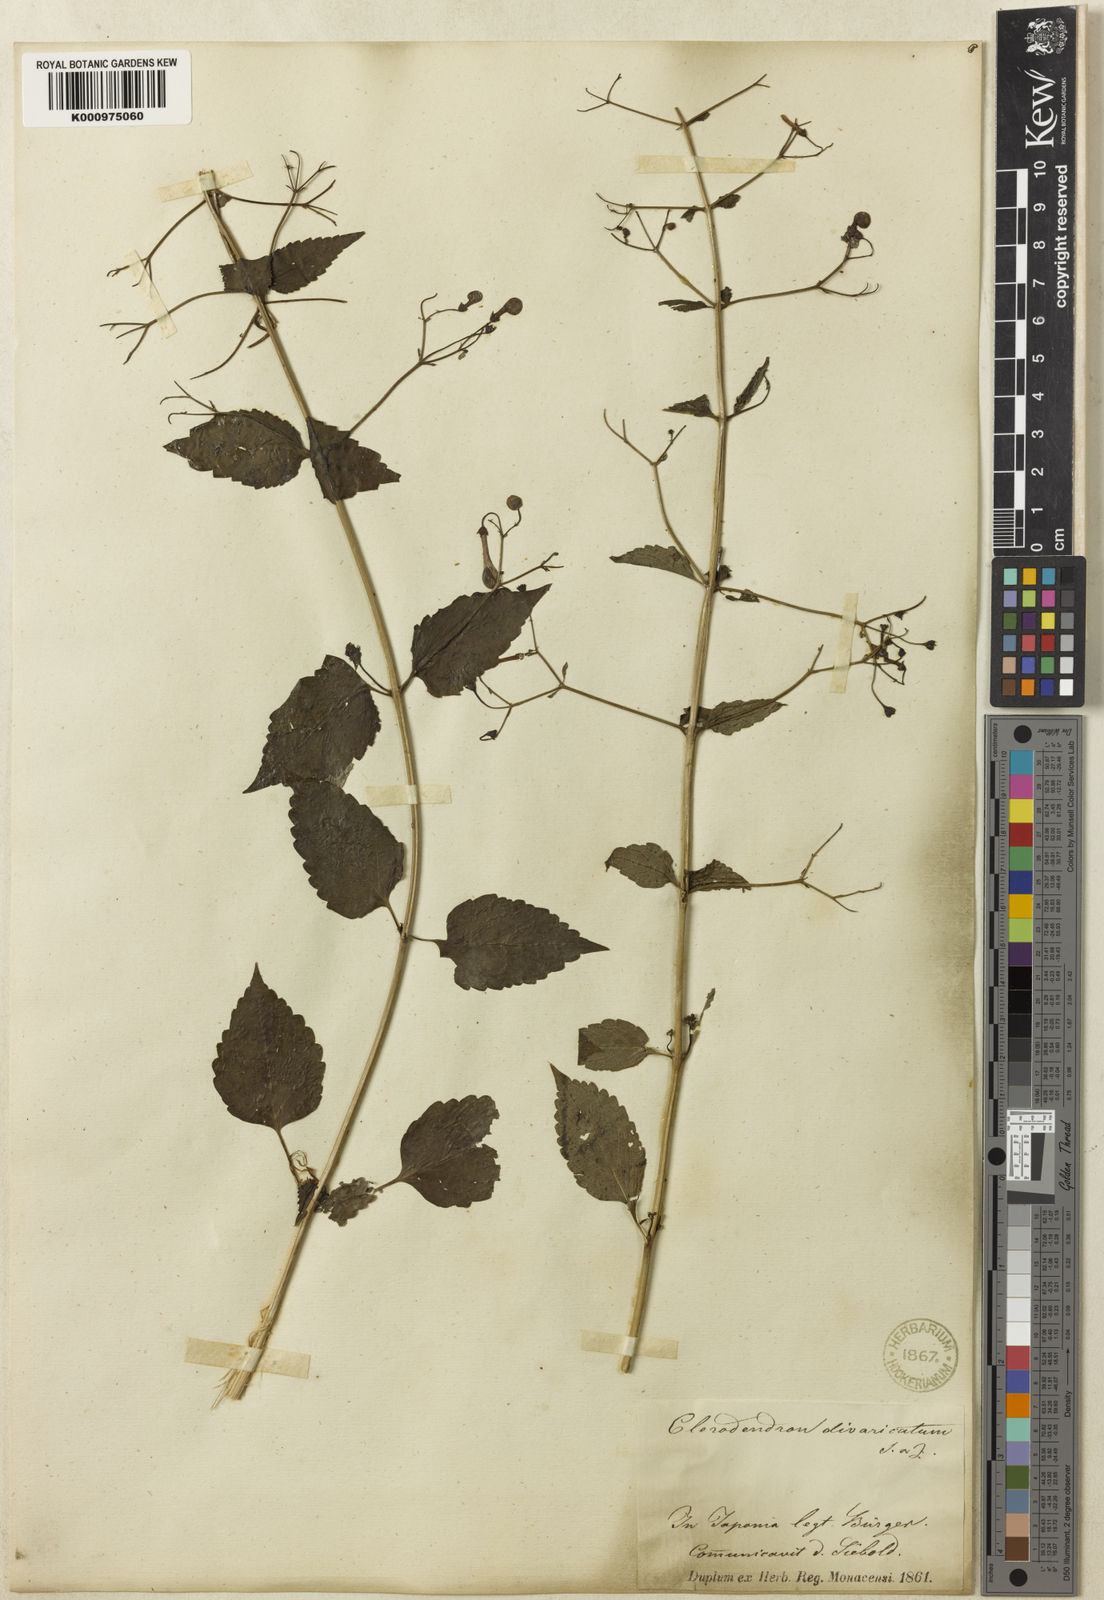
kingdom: Plantae
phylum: Tracheophyta
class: Magnoliopsida
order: Lamiales
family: Lamiaceae
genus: Tripora
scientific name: Tripora divaricata
